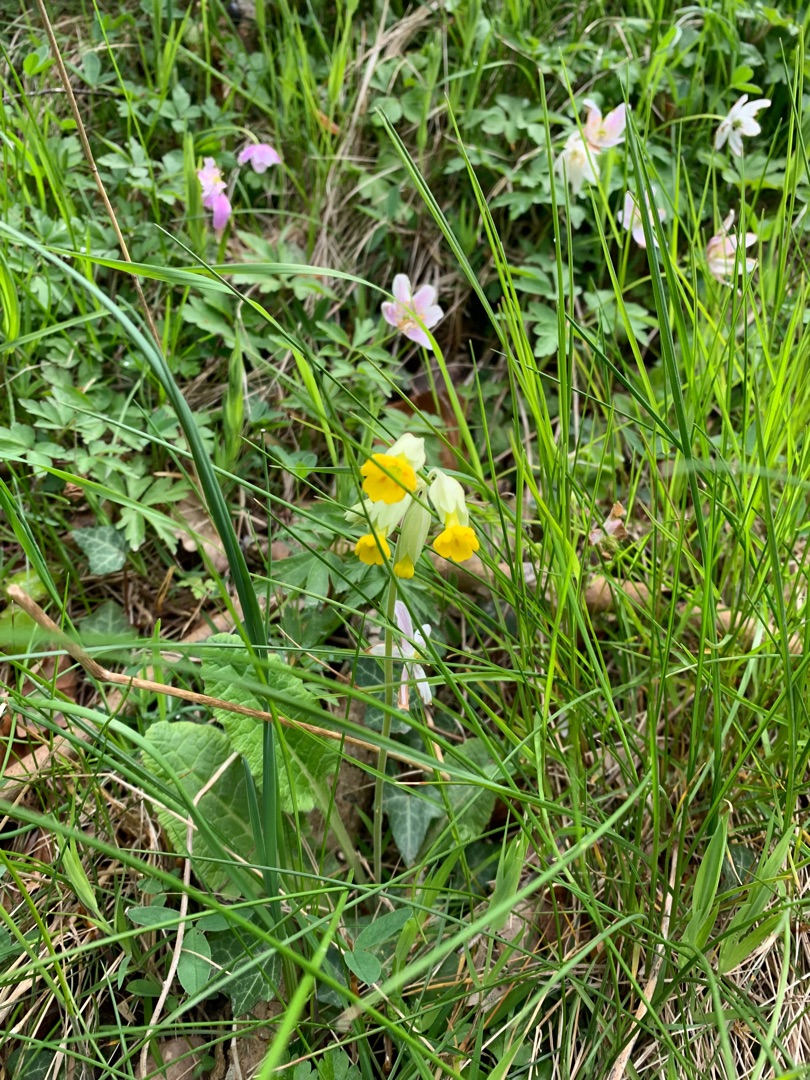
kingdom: Plantae
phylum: Tracheophyta
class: Magnoliopsida
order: Ericales
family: Primulaceae
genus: Primula
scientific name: Primula veris
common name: Hulkravet kodriver
